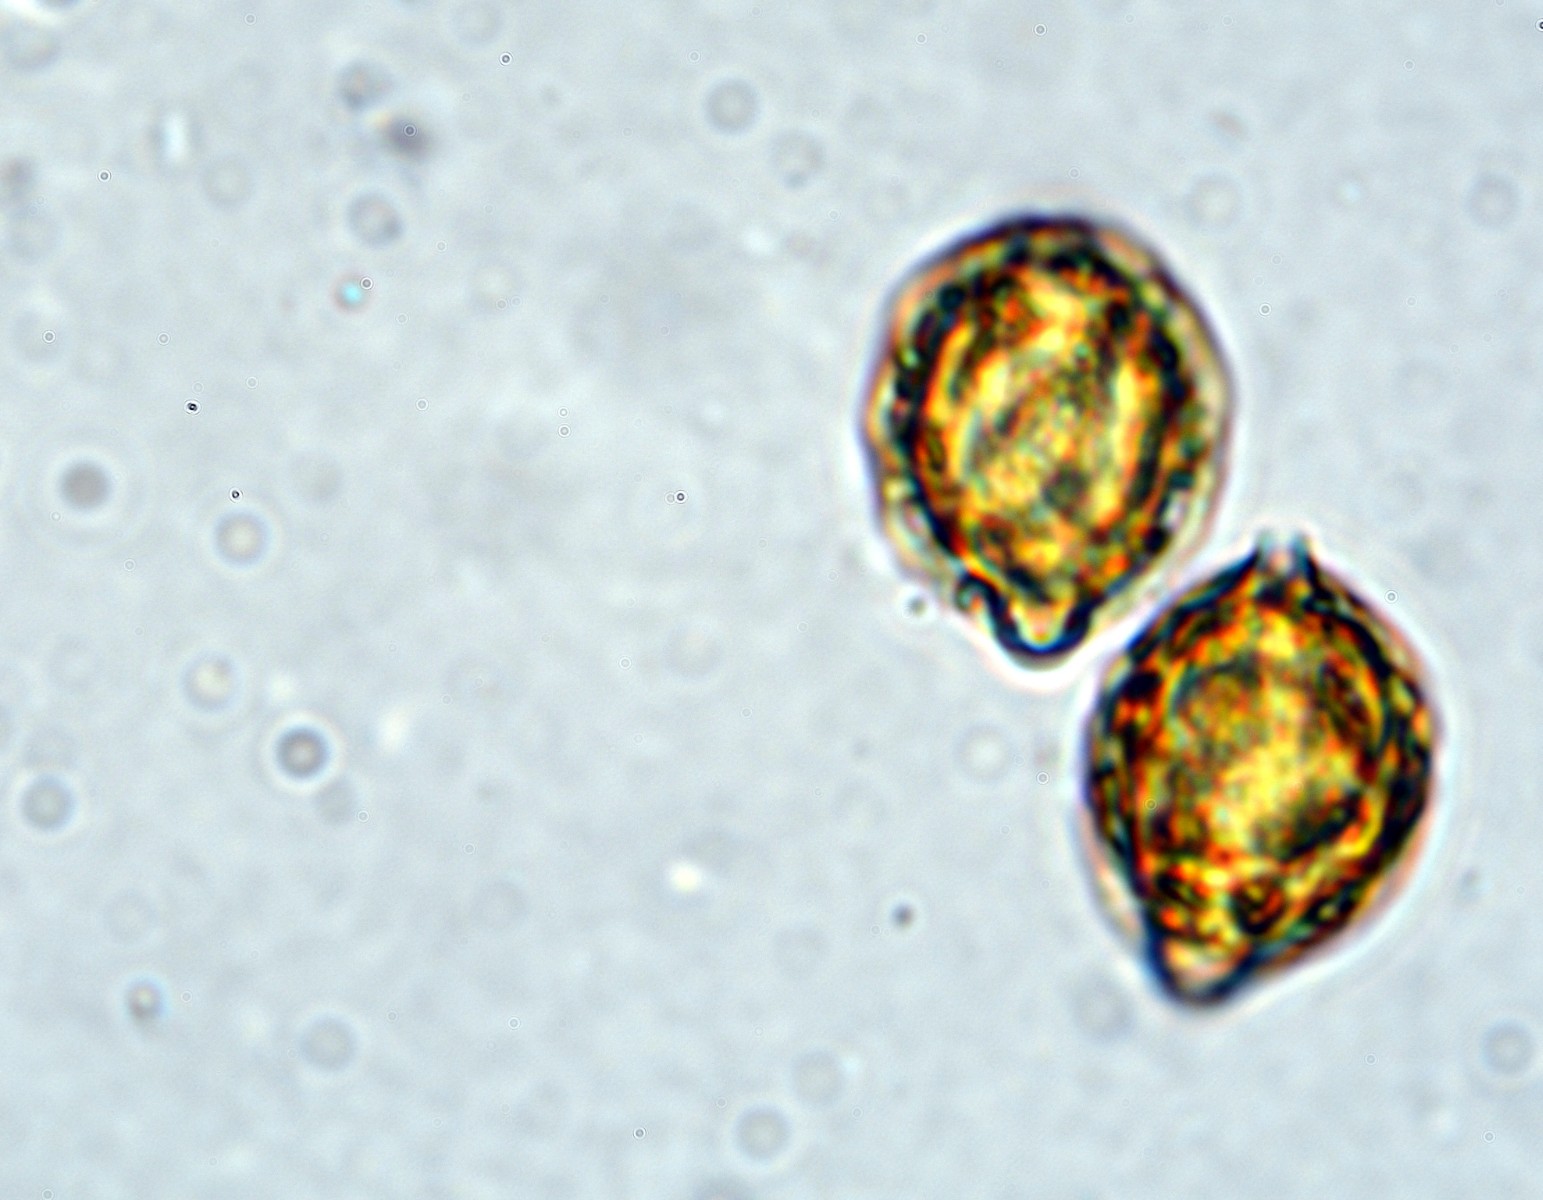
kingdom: Fungi
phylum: Basidiomycota
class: Agaricomycetes
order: Agaricales
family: Cortinariaceae
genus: Protoglossum
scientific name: Protoglossum niveum
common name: hvid knoldtrøffel
